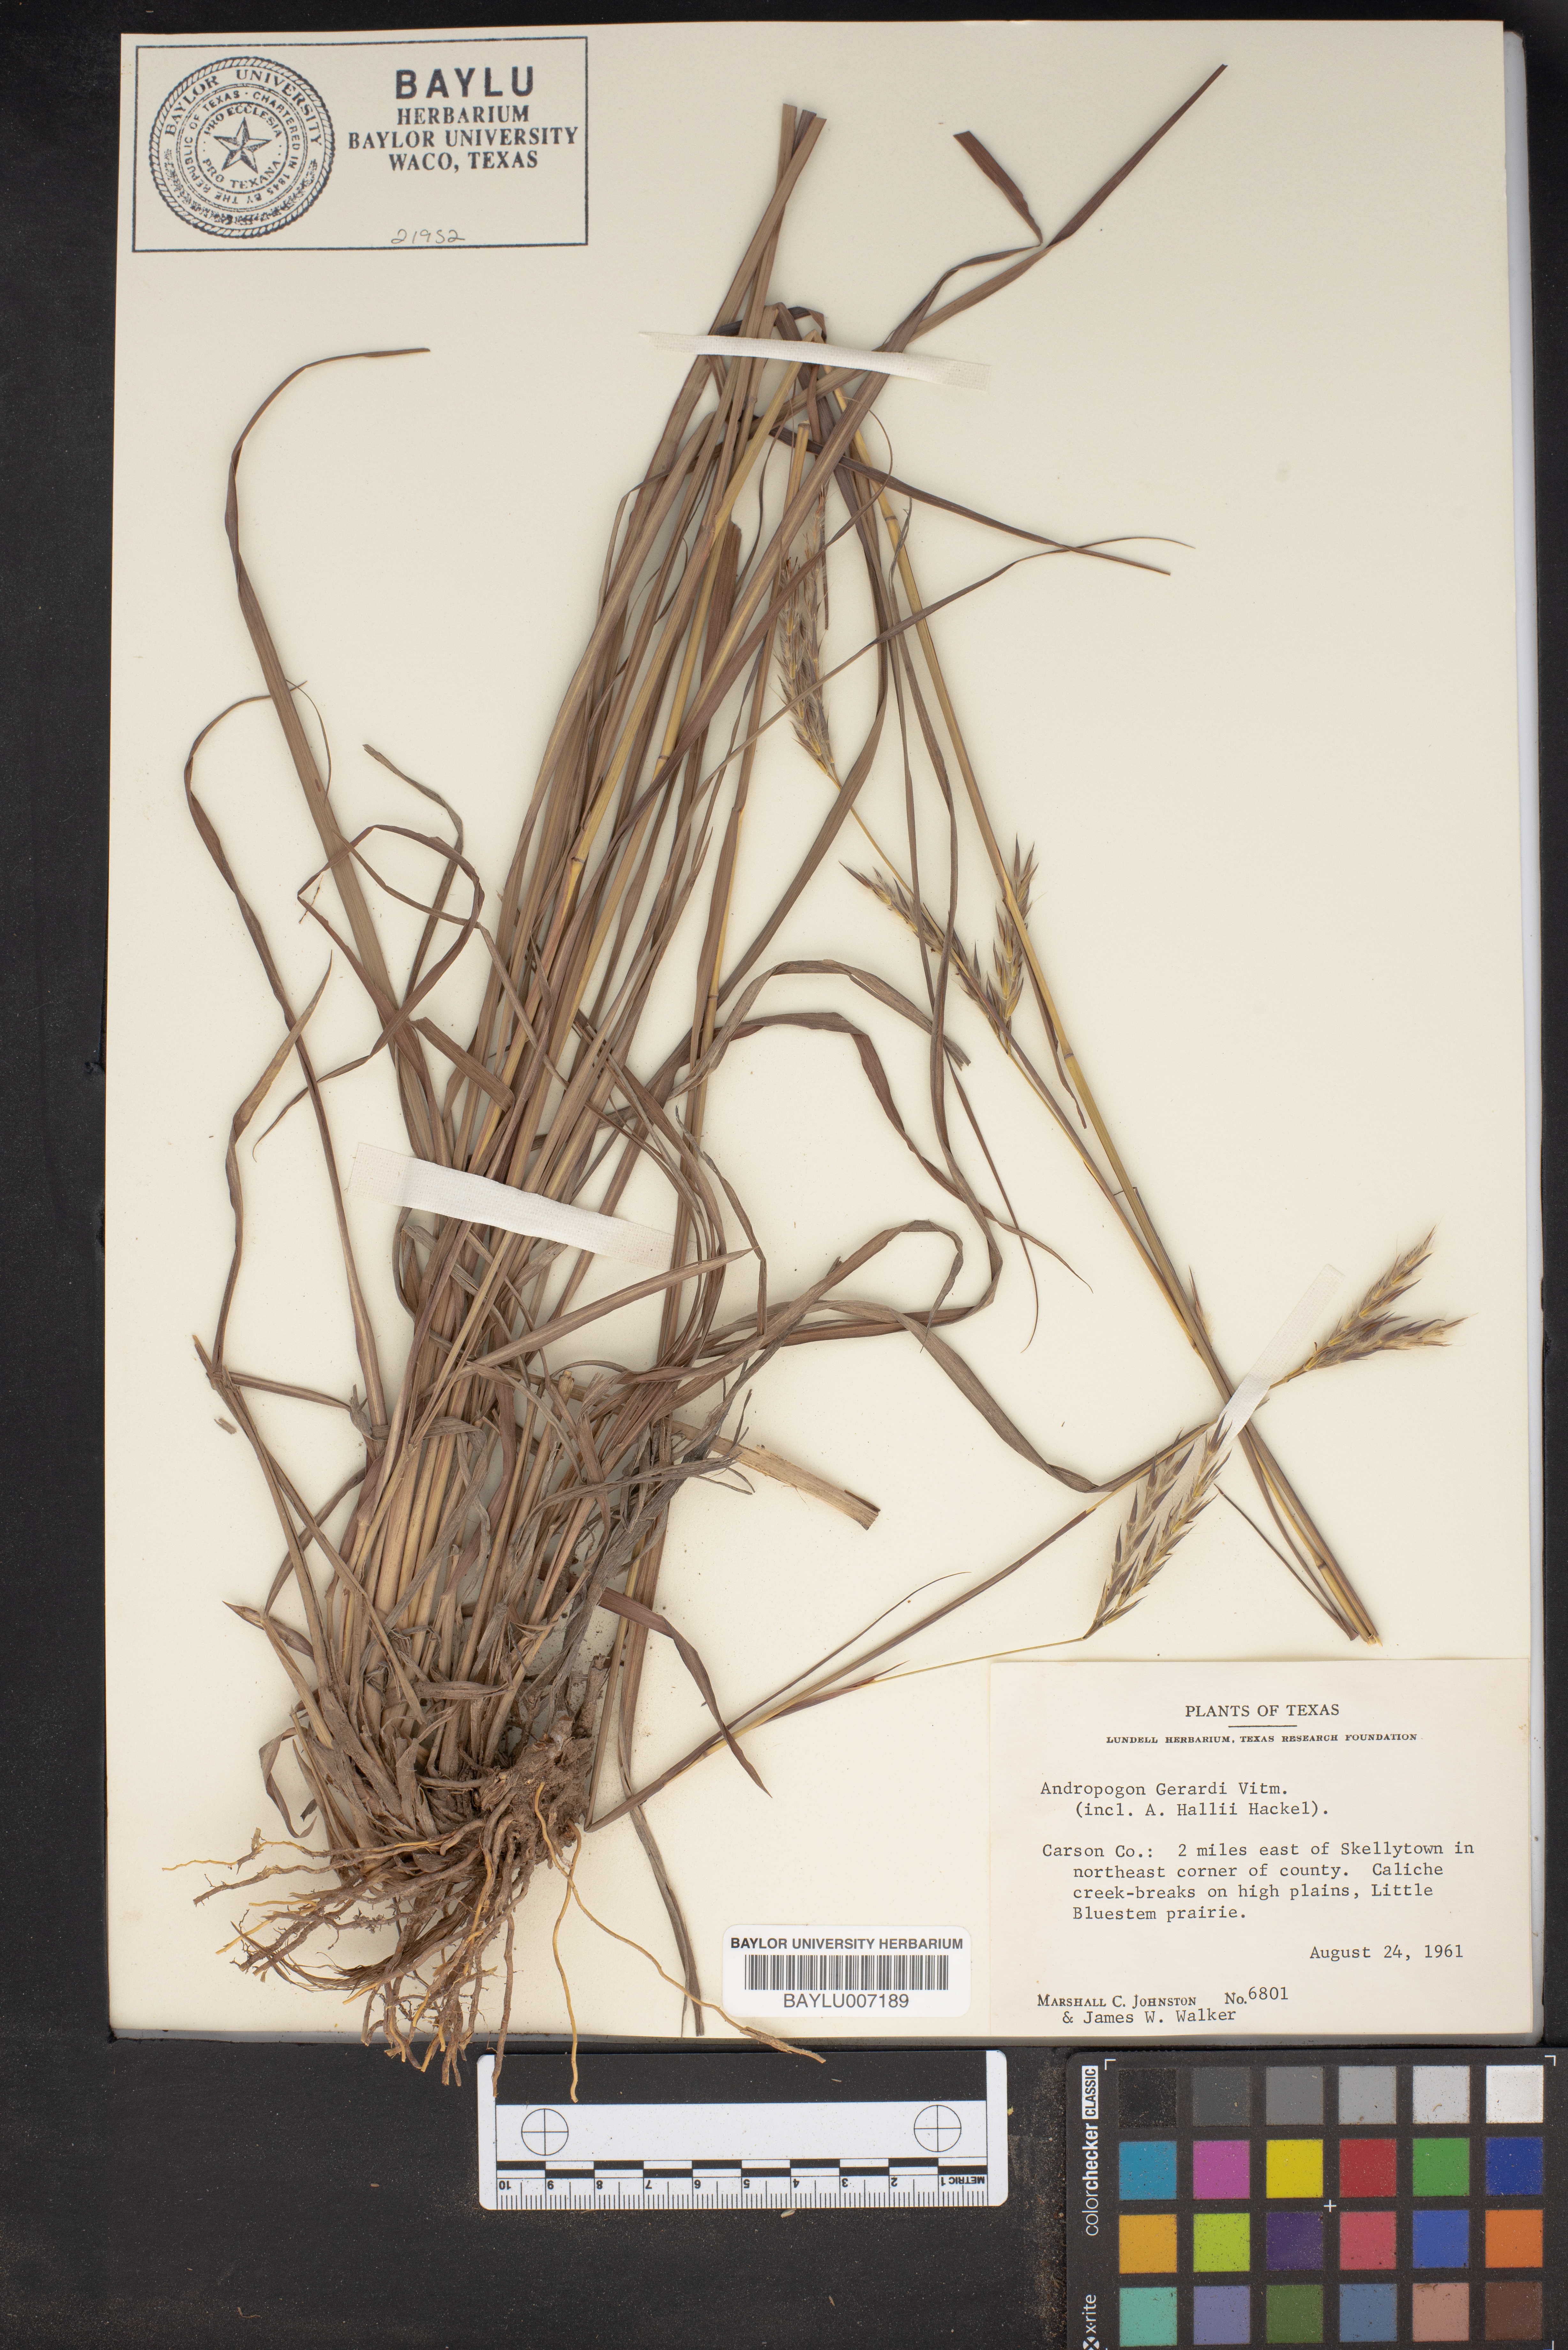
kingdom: Plantae
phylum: Tracheophyta
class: Liliopsida
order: Poales
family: Poaceae
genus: Andropogon
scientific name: Andropogon gerardi
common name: Big bluestem
